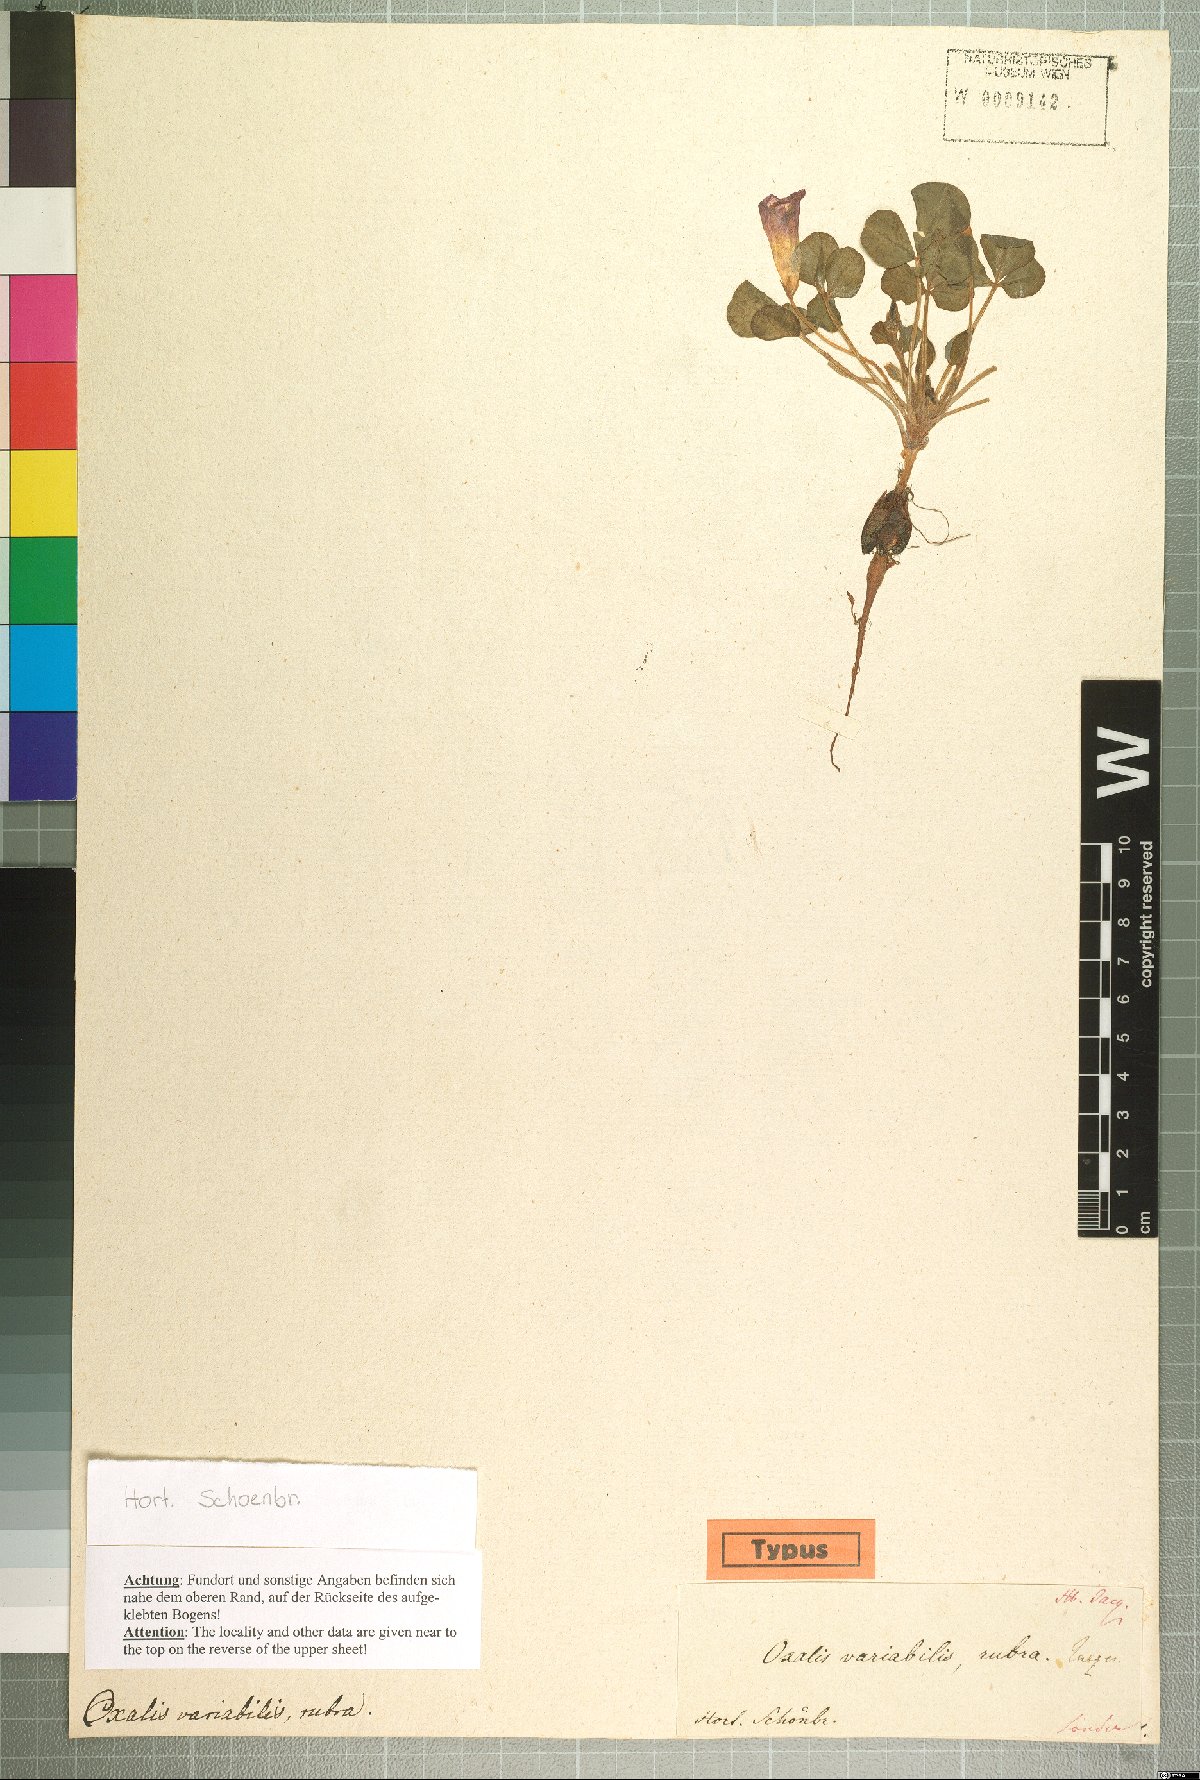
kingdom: Plantae
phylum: Tracheophyta
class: Magnoliopsida
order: Oxalidales
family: Oxalidaceae
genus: Oxalis
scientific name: Oxalis purpurea
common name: Purple woodsorrel
